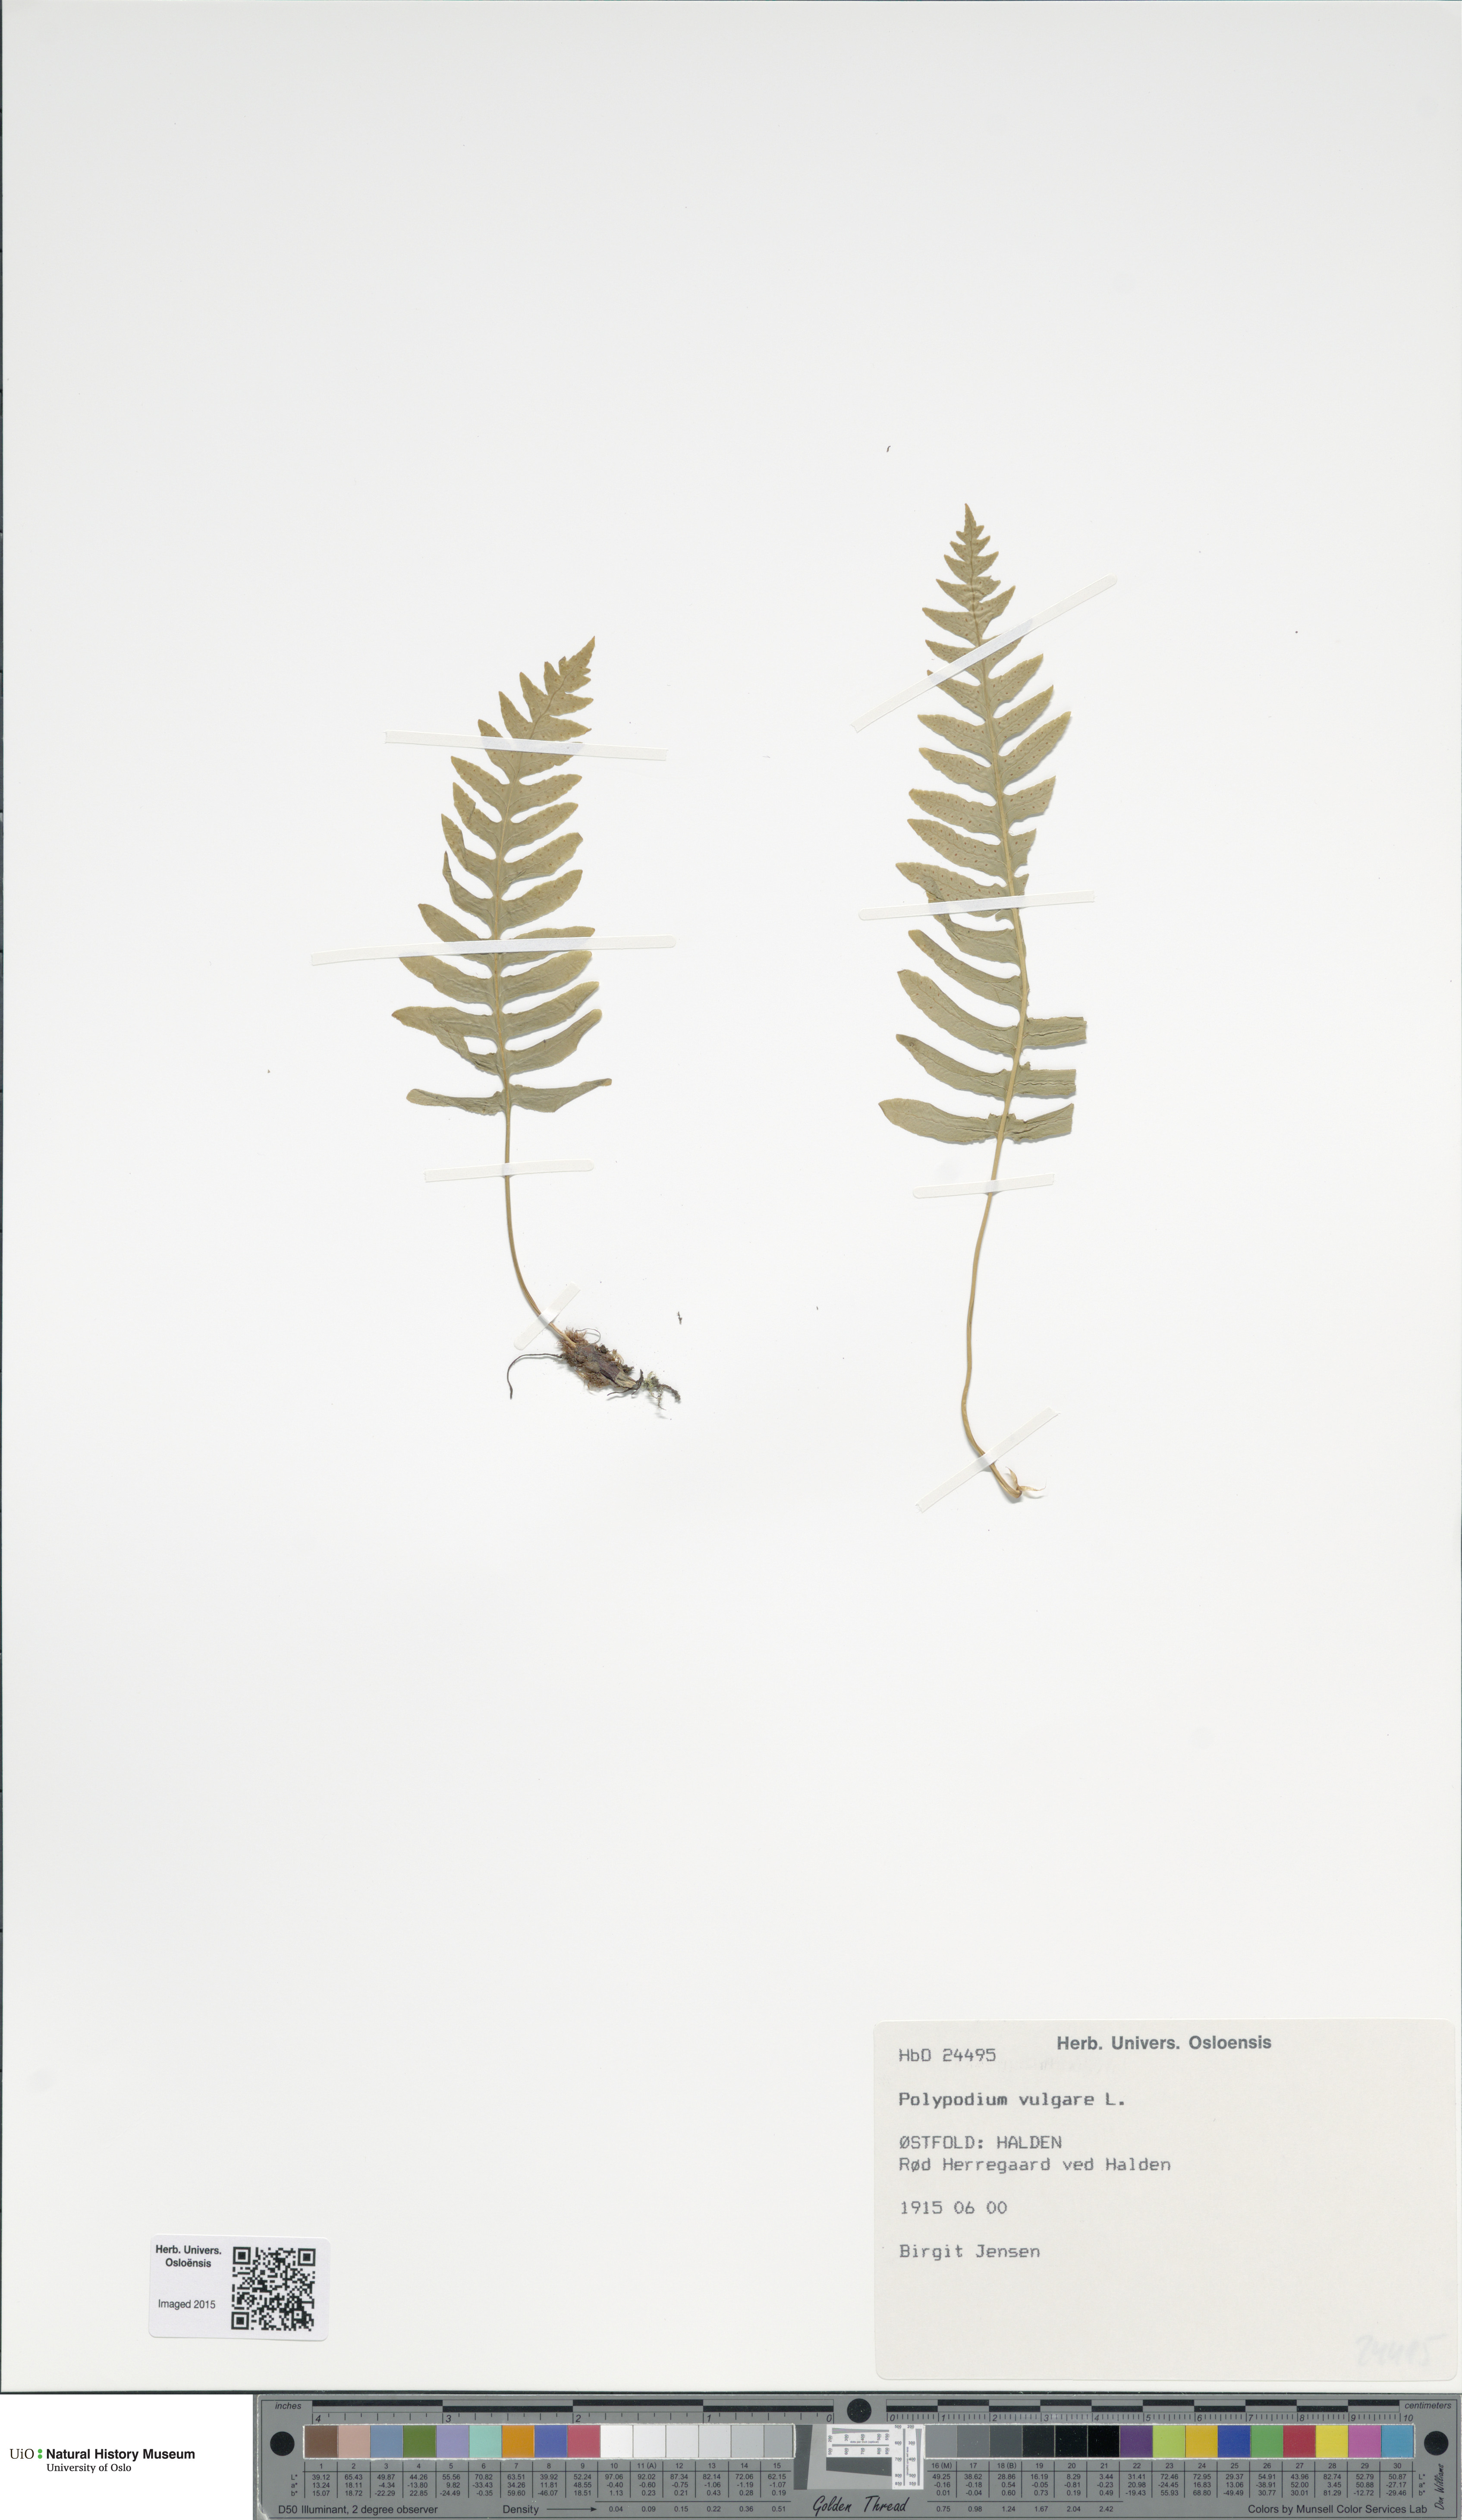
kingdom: Plantae
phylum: Tracheophyta
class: Polypodiopsida
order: Polypodiales
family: Polypodiaceae
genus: Polypodium
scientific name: Polypodium vulgare
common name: Common polypody
